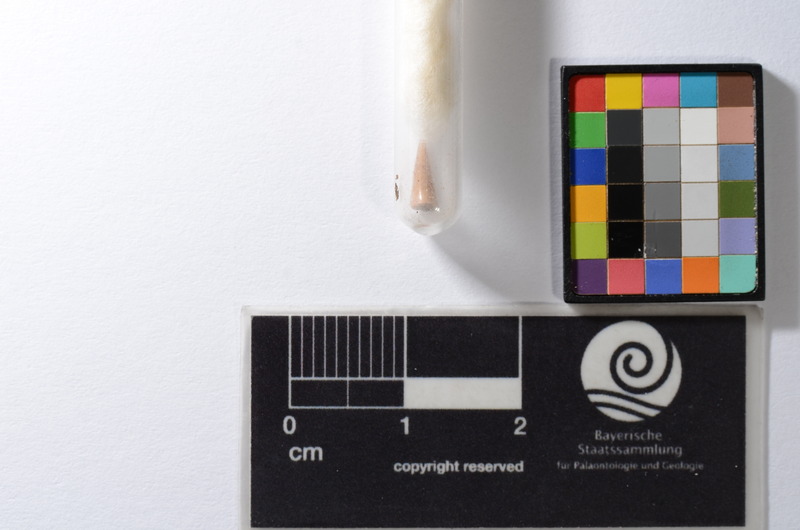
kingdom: Animalia
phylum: Chordata
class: Elasmobranchii
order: Rajiformes
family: Sclerorhynchidae
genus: Schizorhiza
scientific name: Schizorhiza stromeri
